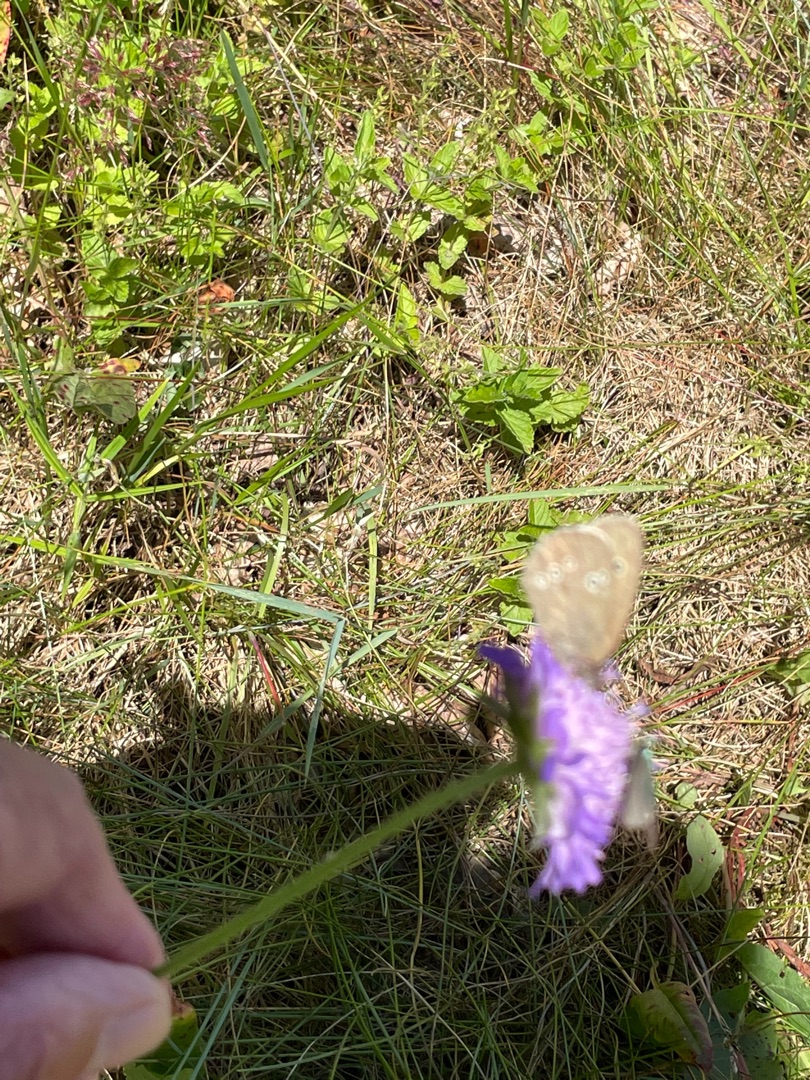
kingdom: Animalia
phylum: Arthropoda
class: Insecta
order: Lepidoptera
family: Nymphalidae
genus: Aphantopus
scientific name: Aphantopus hyperantus
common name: Engrandøje
